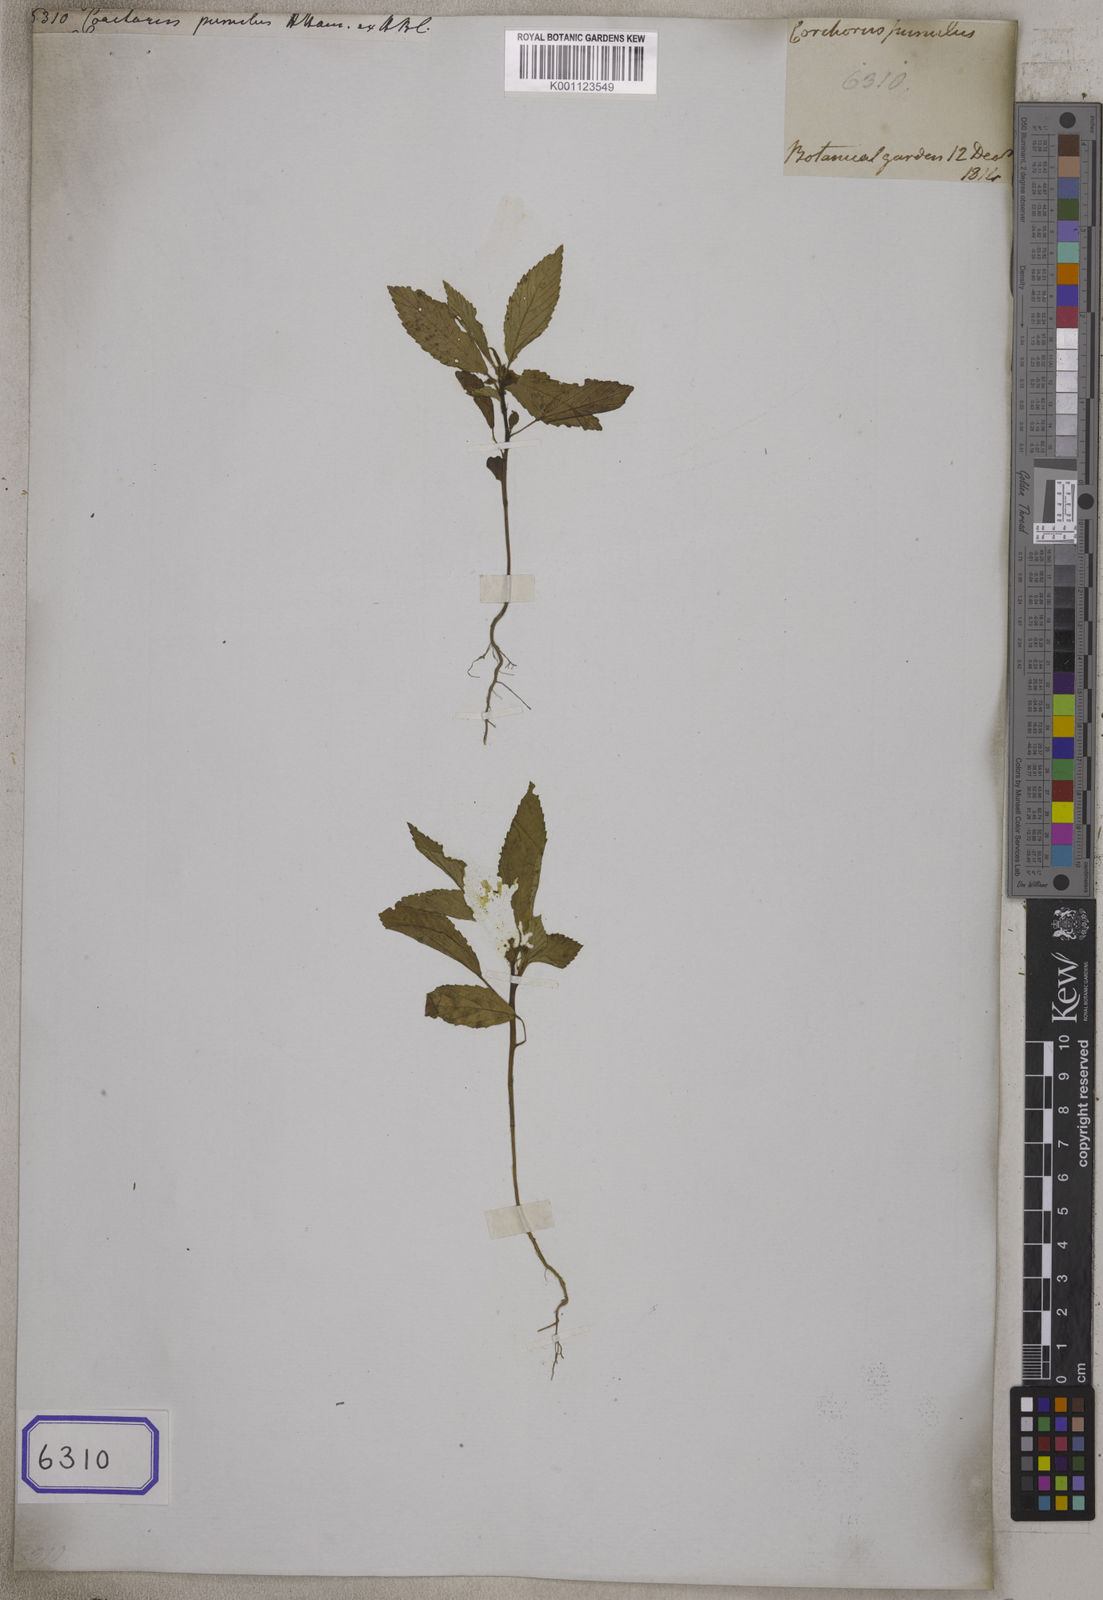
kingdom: Plantae
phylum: Tracheophyta
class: Magnoliopsida
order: Malvales
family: Malvaceae
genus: Corchorus
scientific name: Corchorus pumilus
